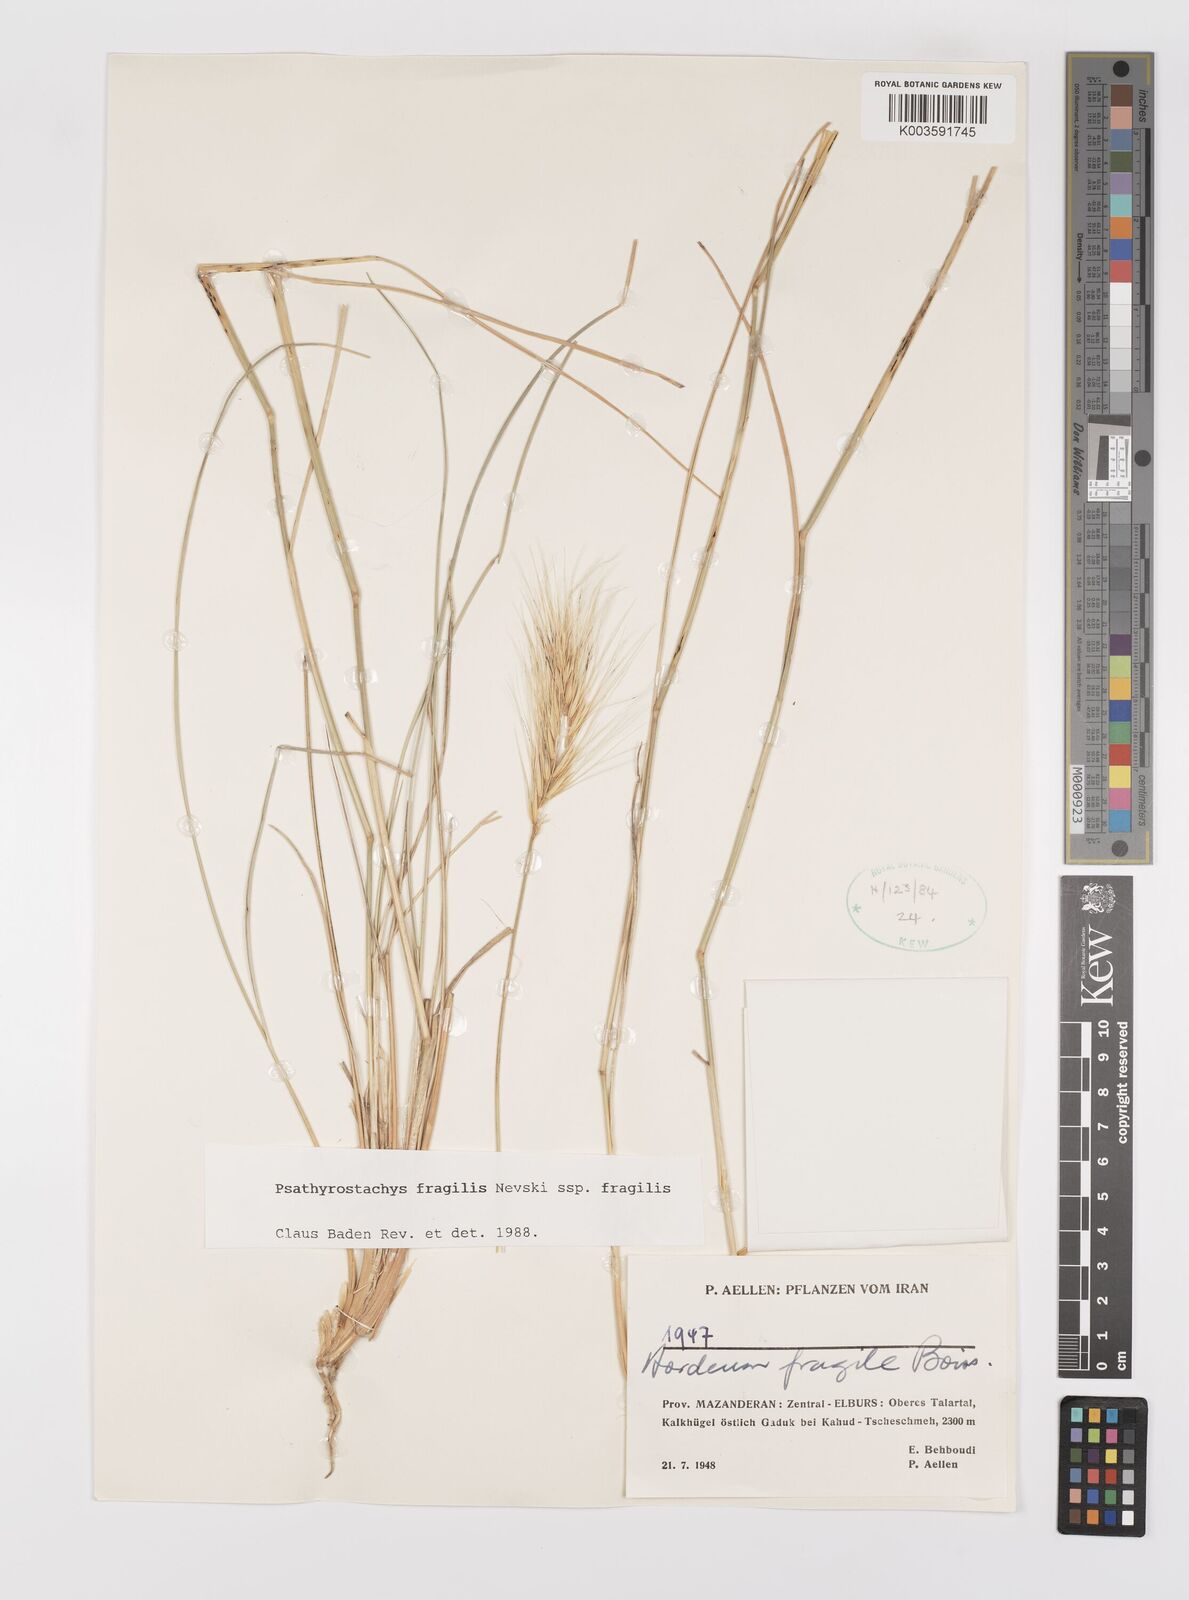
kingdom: Plantae
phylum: Tracheophyta
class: Liliopsida
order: Poales
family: Poaceae
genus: Psathyrostachys
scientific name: Psathyrostachys fragilis
